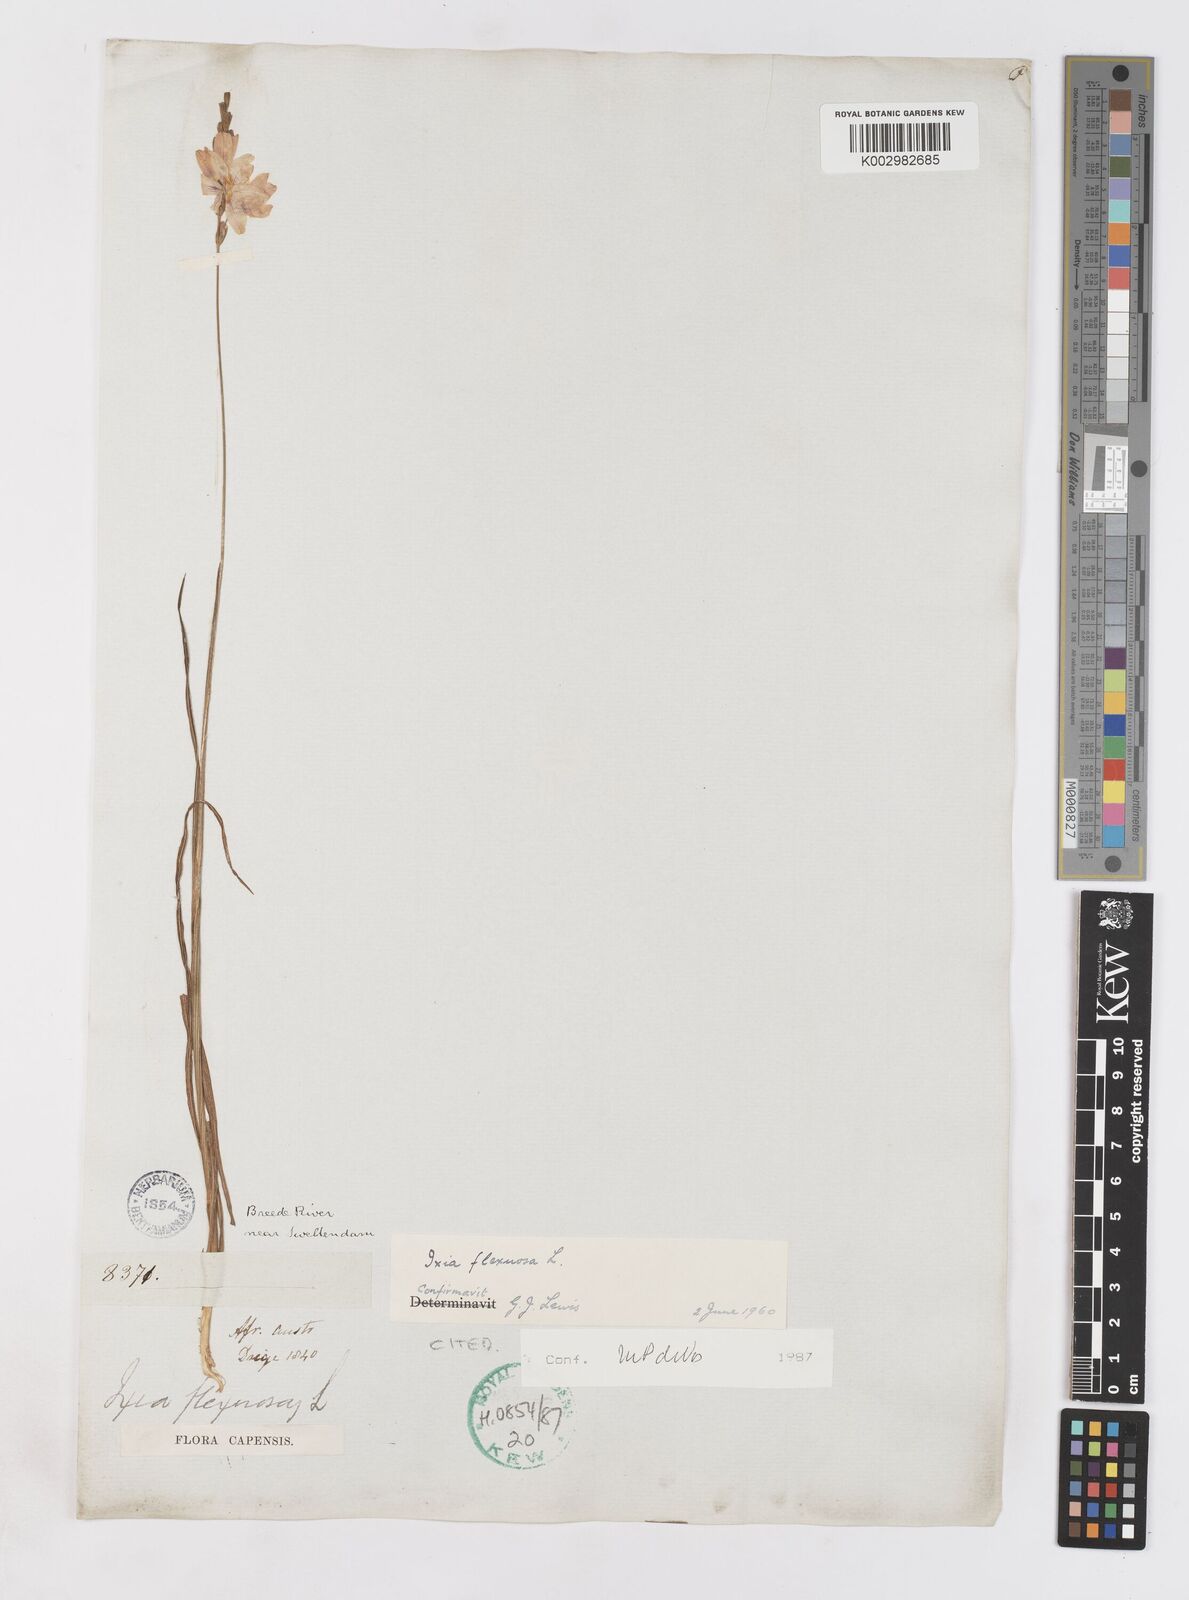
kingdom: Plantae
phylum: Tracheophyta
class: Liliopsida
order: Asparagales
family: Iridaceae
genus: Ixia
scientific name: Ixia flexuosa
